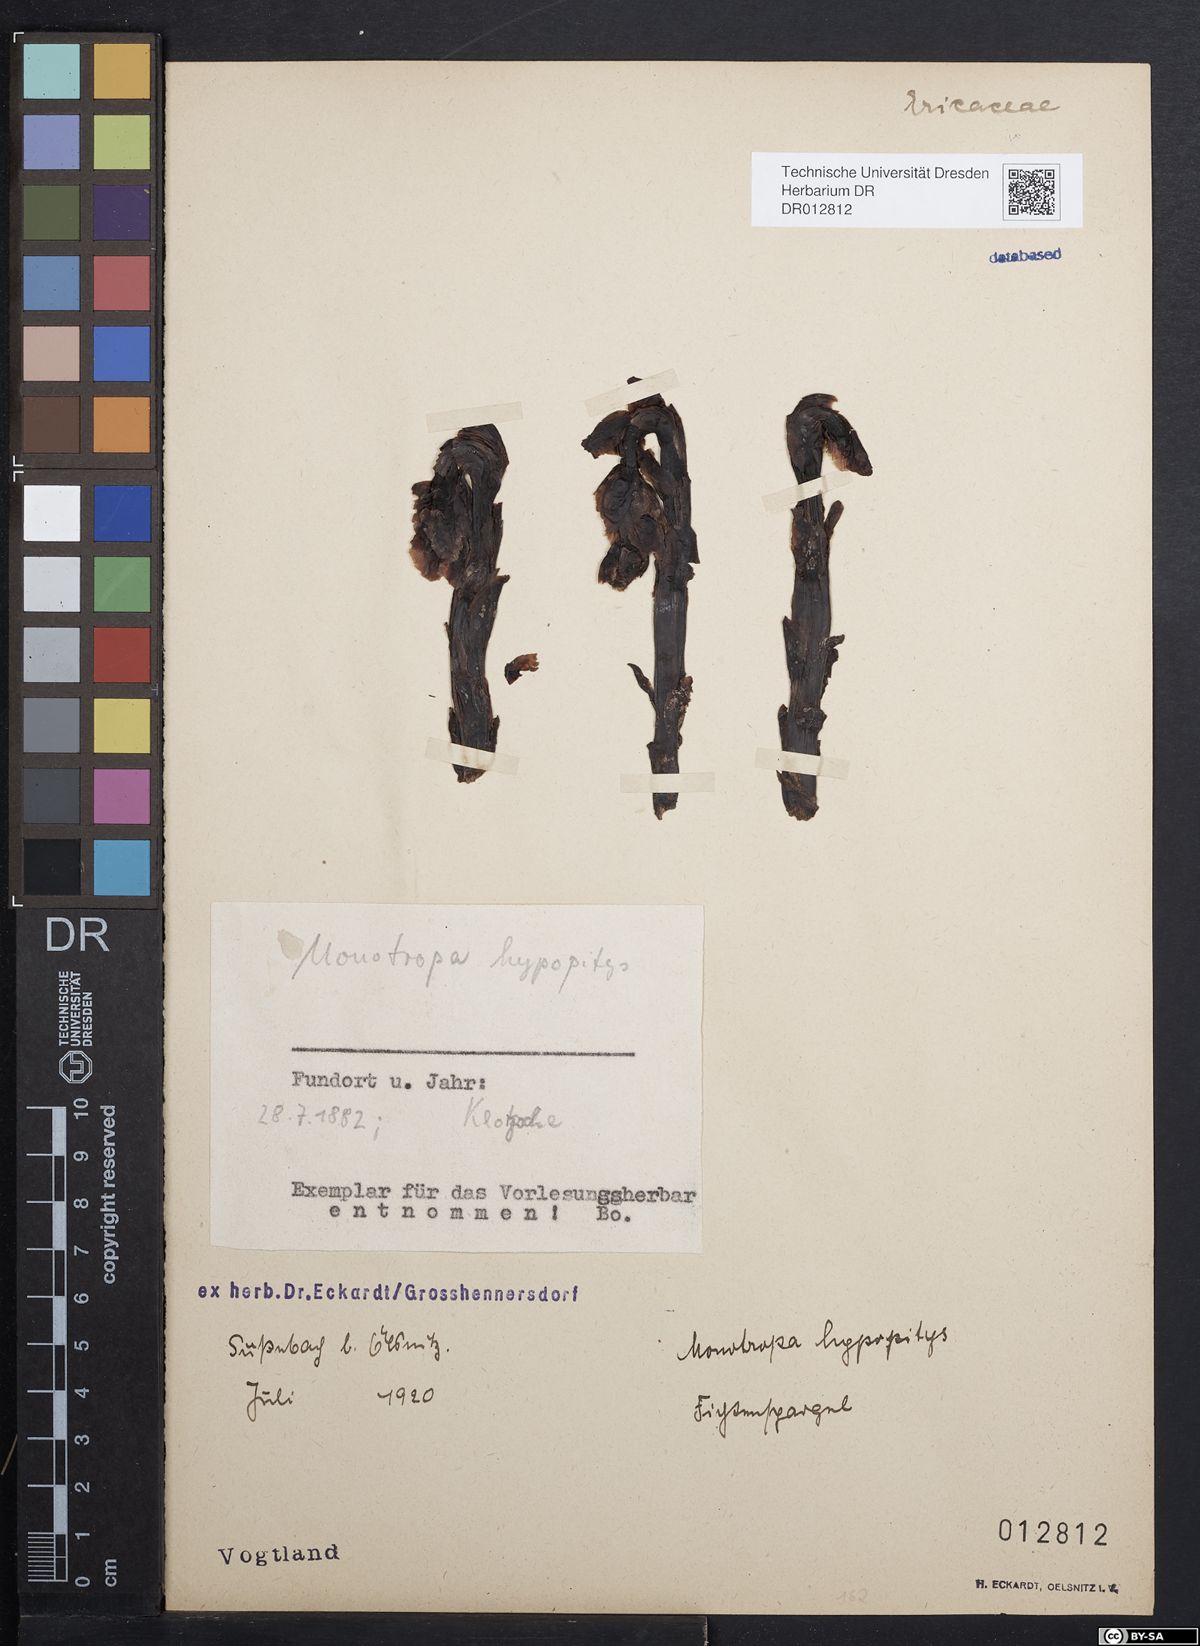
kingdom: Plantae
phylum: Tracheophyta
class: Magnoliopsida
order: Ericales
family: Ericaceae
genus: Hypopitys
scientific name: Hypopitys monotropa
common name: Yellow bird's-nest
